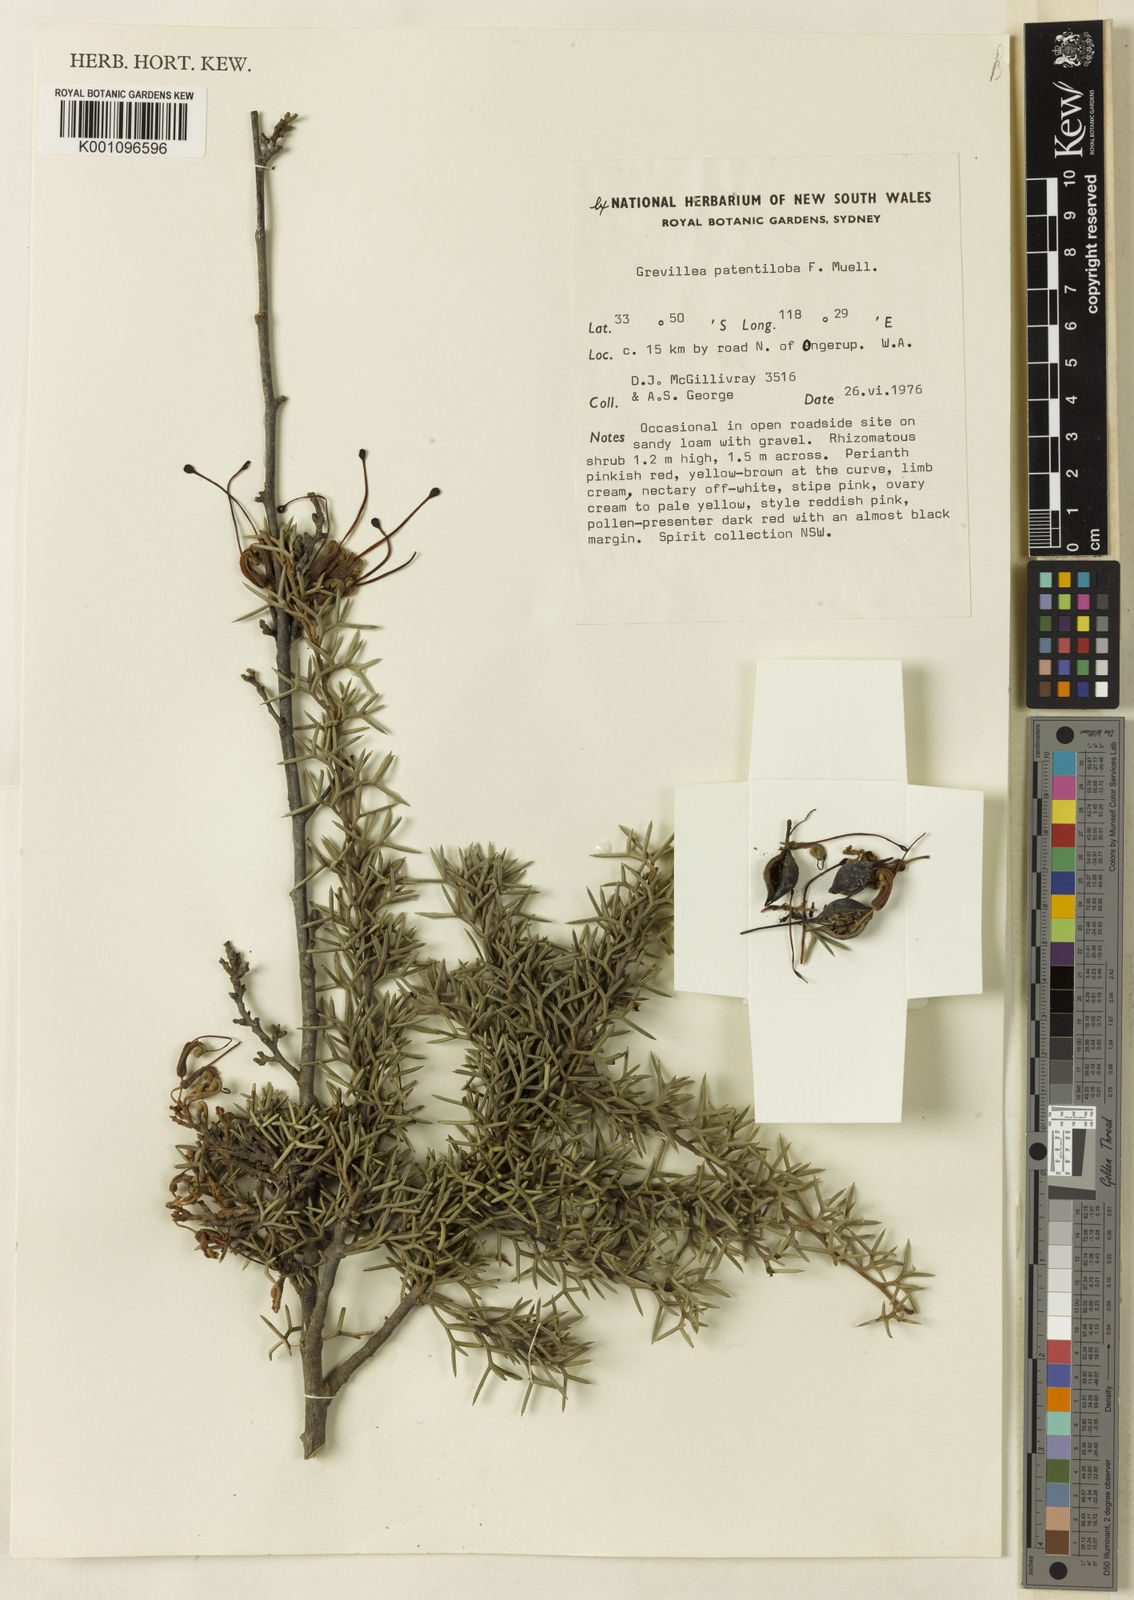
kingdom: Plantae
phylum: Tracheophyta
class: Magnoliopsida
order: Proteales
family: Proteaceae
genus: Grevillea
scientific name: Grevillea newbeyi
